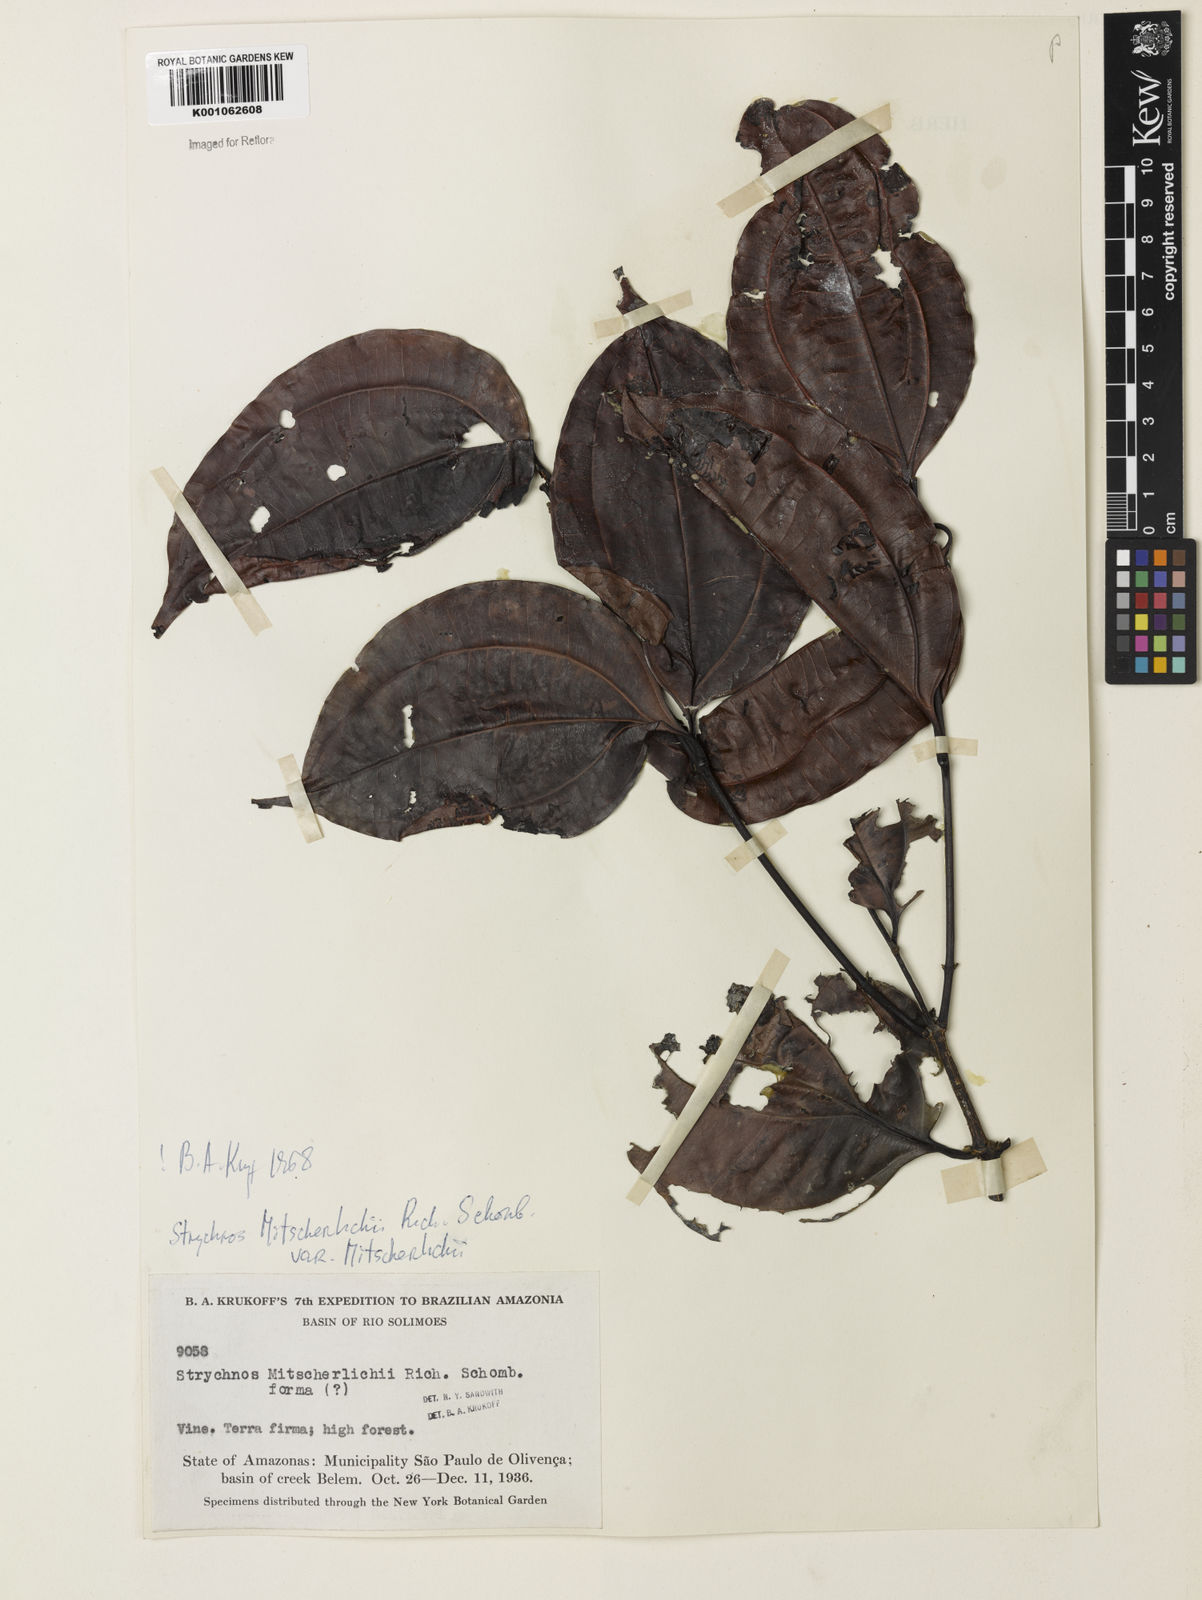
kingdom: Plantae
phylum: Tracheophyta
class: Magnoliopsida
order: Gentianales
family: Loganiaceae
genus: Strychnos
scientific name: Strychnos mitscherlichii
